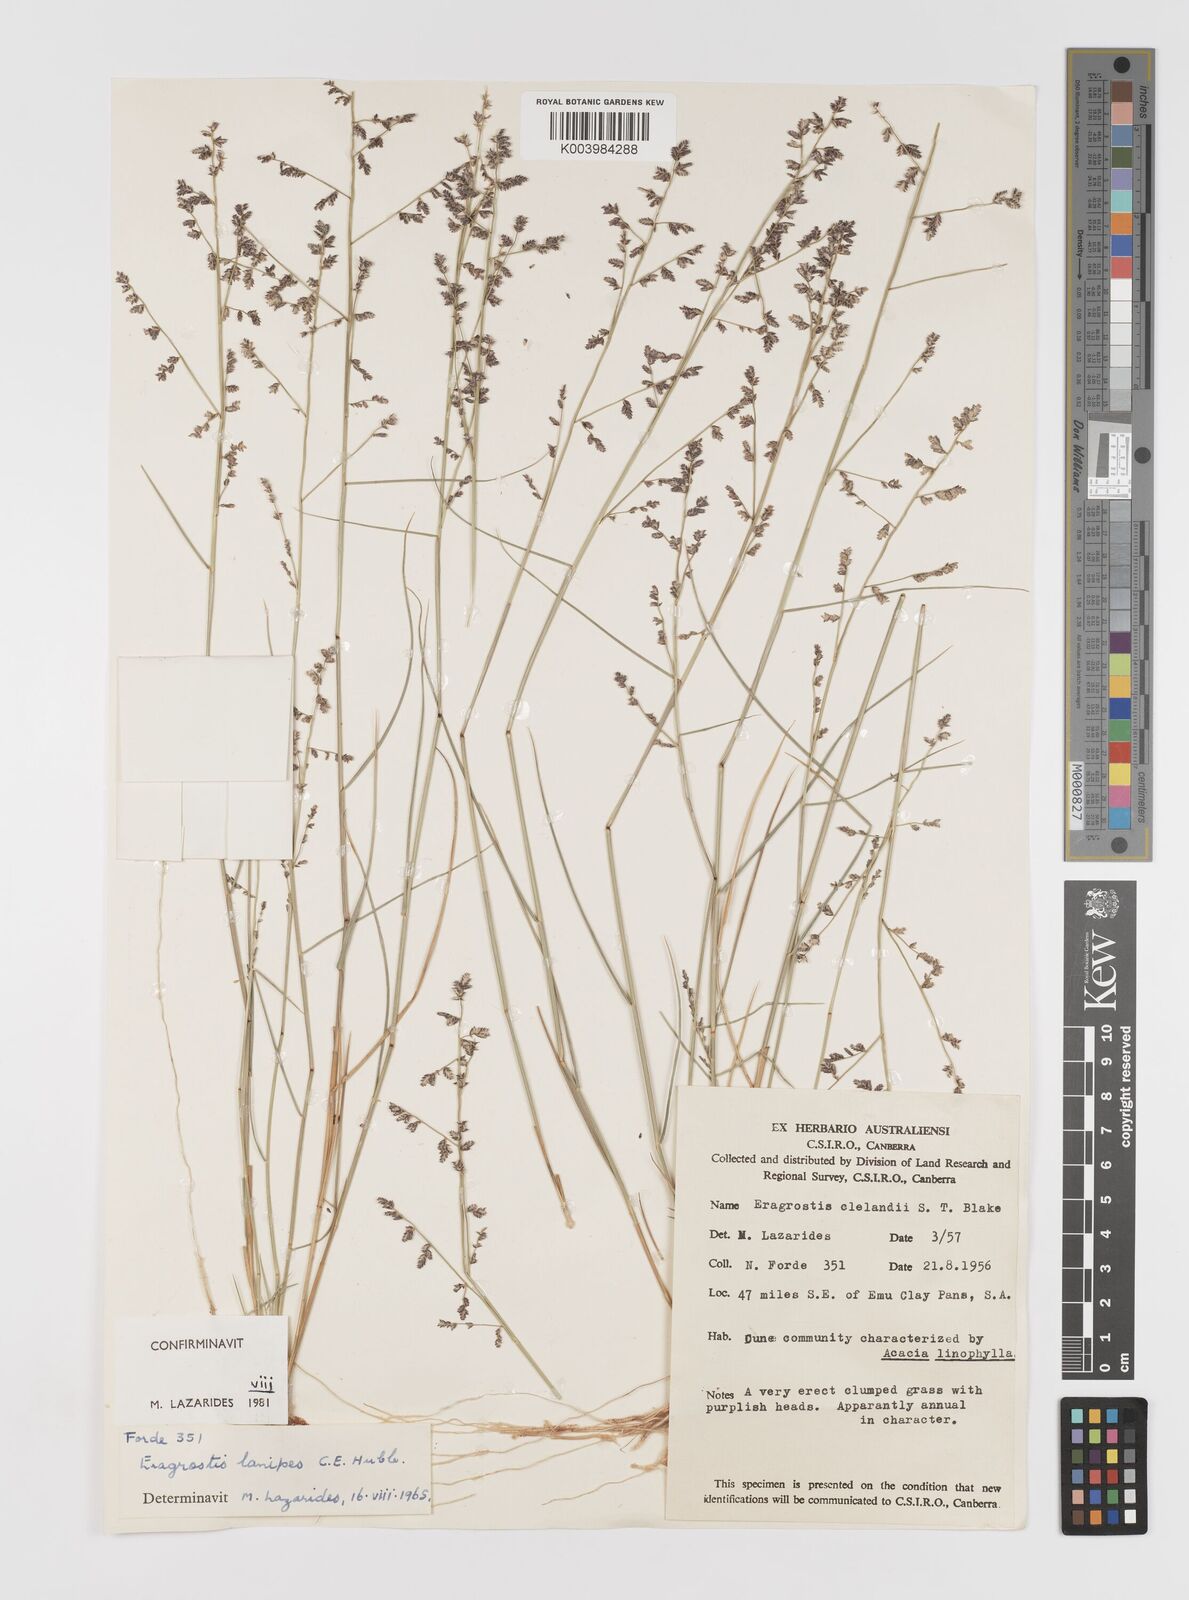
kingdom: Plantae
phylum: Tracheophyta
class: Liliopsida
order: Poales
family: Poaceae
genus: Eragrostis
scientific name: Eragrostis lanipes
